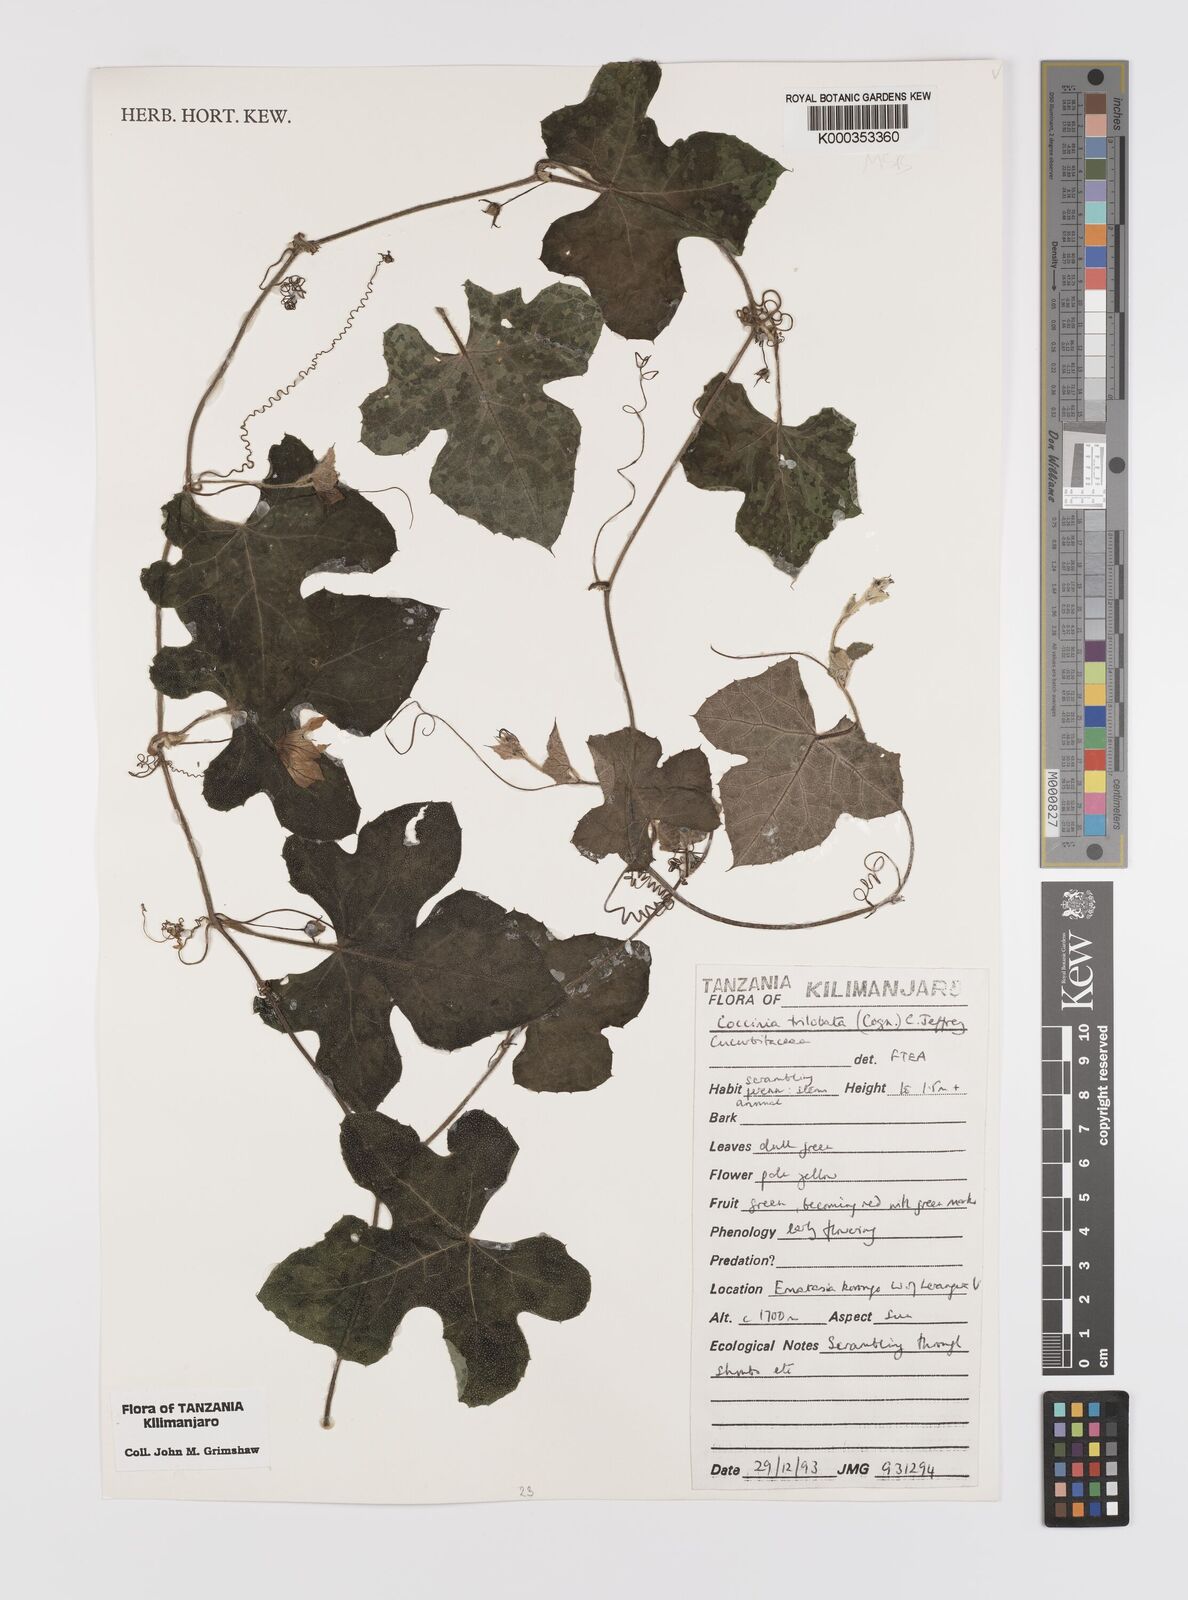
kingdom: Plantae
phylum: Tracheophyta
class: Magnoliopsida
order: Cucurbitales
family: Cucurbitaceae
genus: Coccinia
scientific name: Coccinia trilobata
